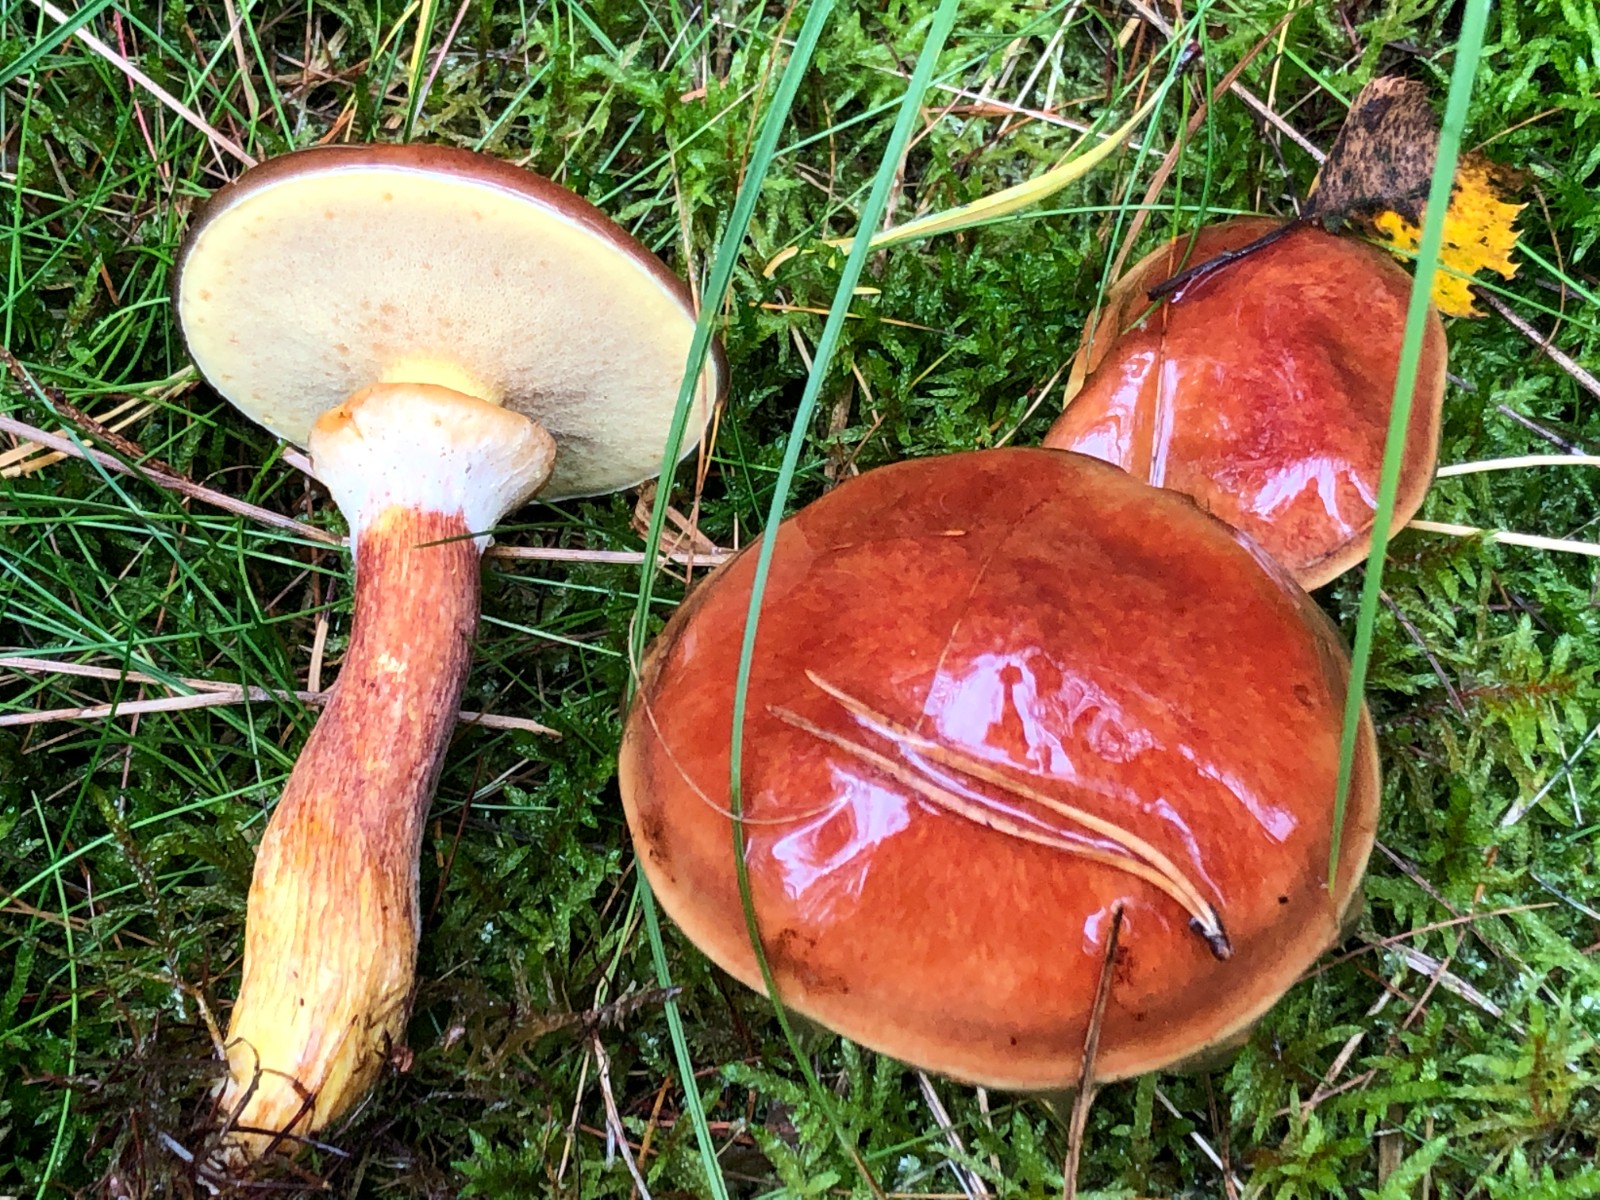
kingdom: Fungi
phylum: Basidiomycota
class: Agaricomycetes
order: Boletales
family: Suillaceae
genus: Suillus
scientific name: Suillus grevillei
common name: Larch bolete
